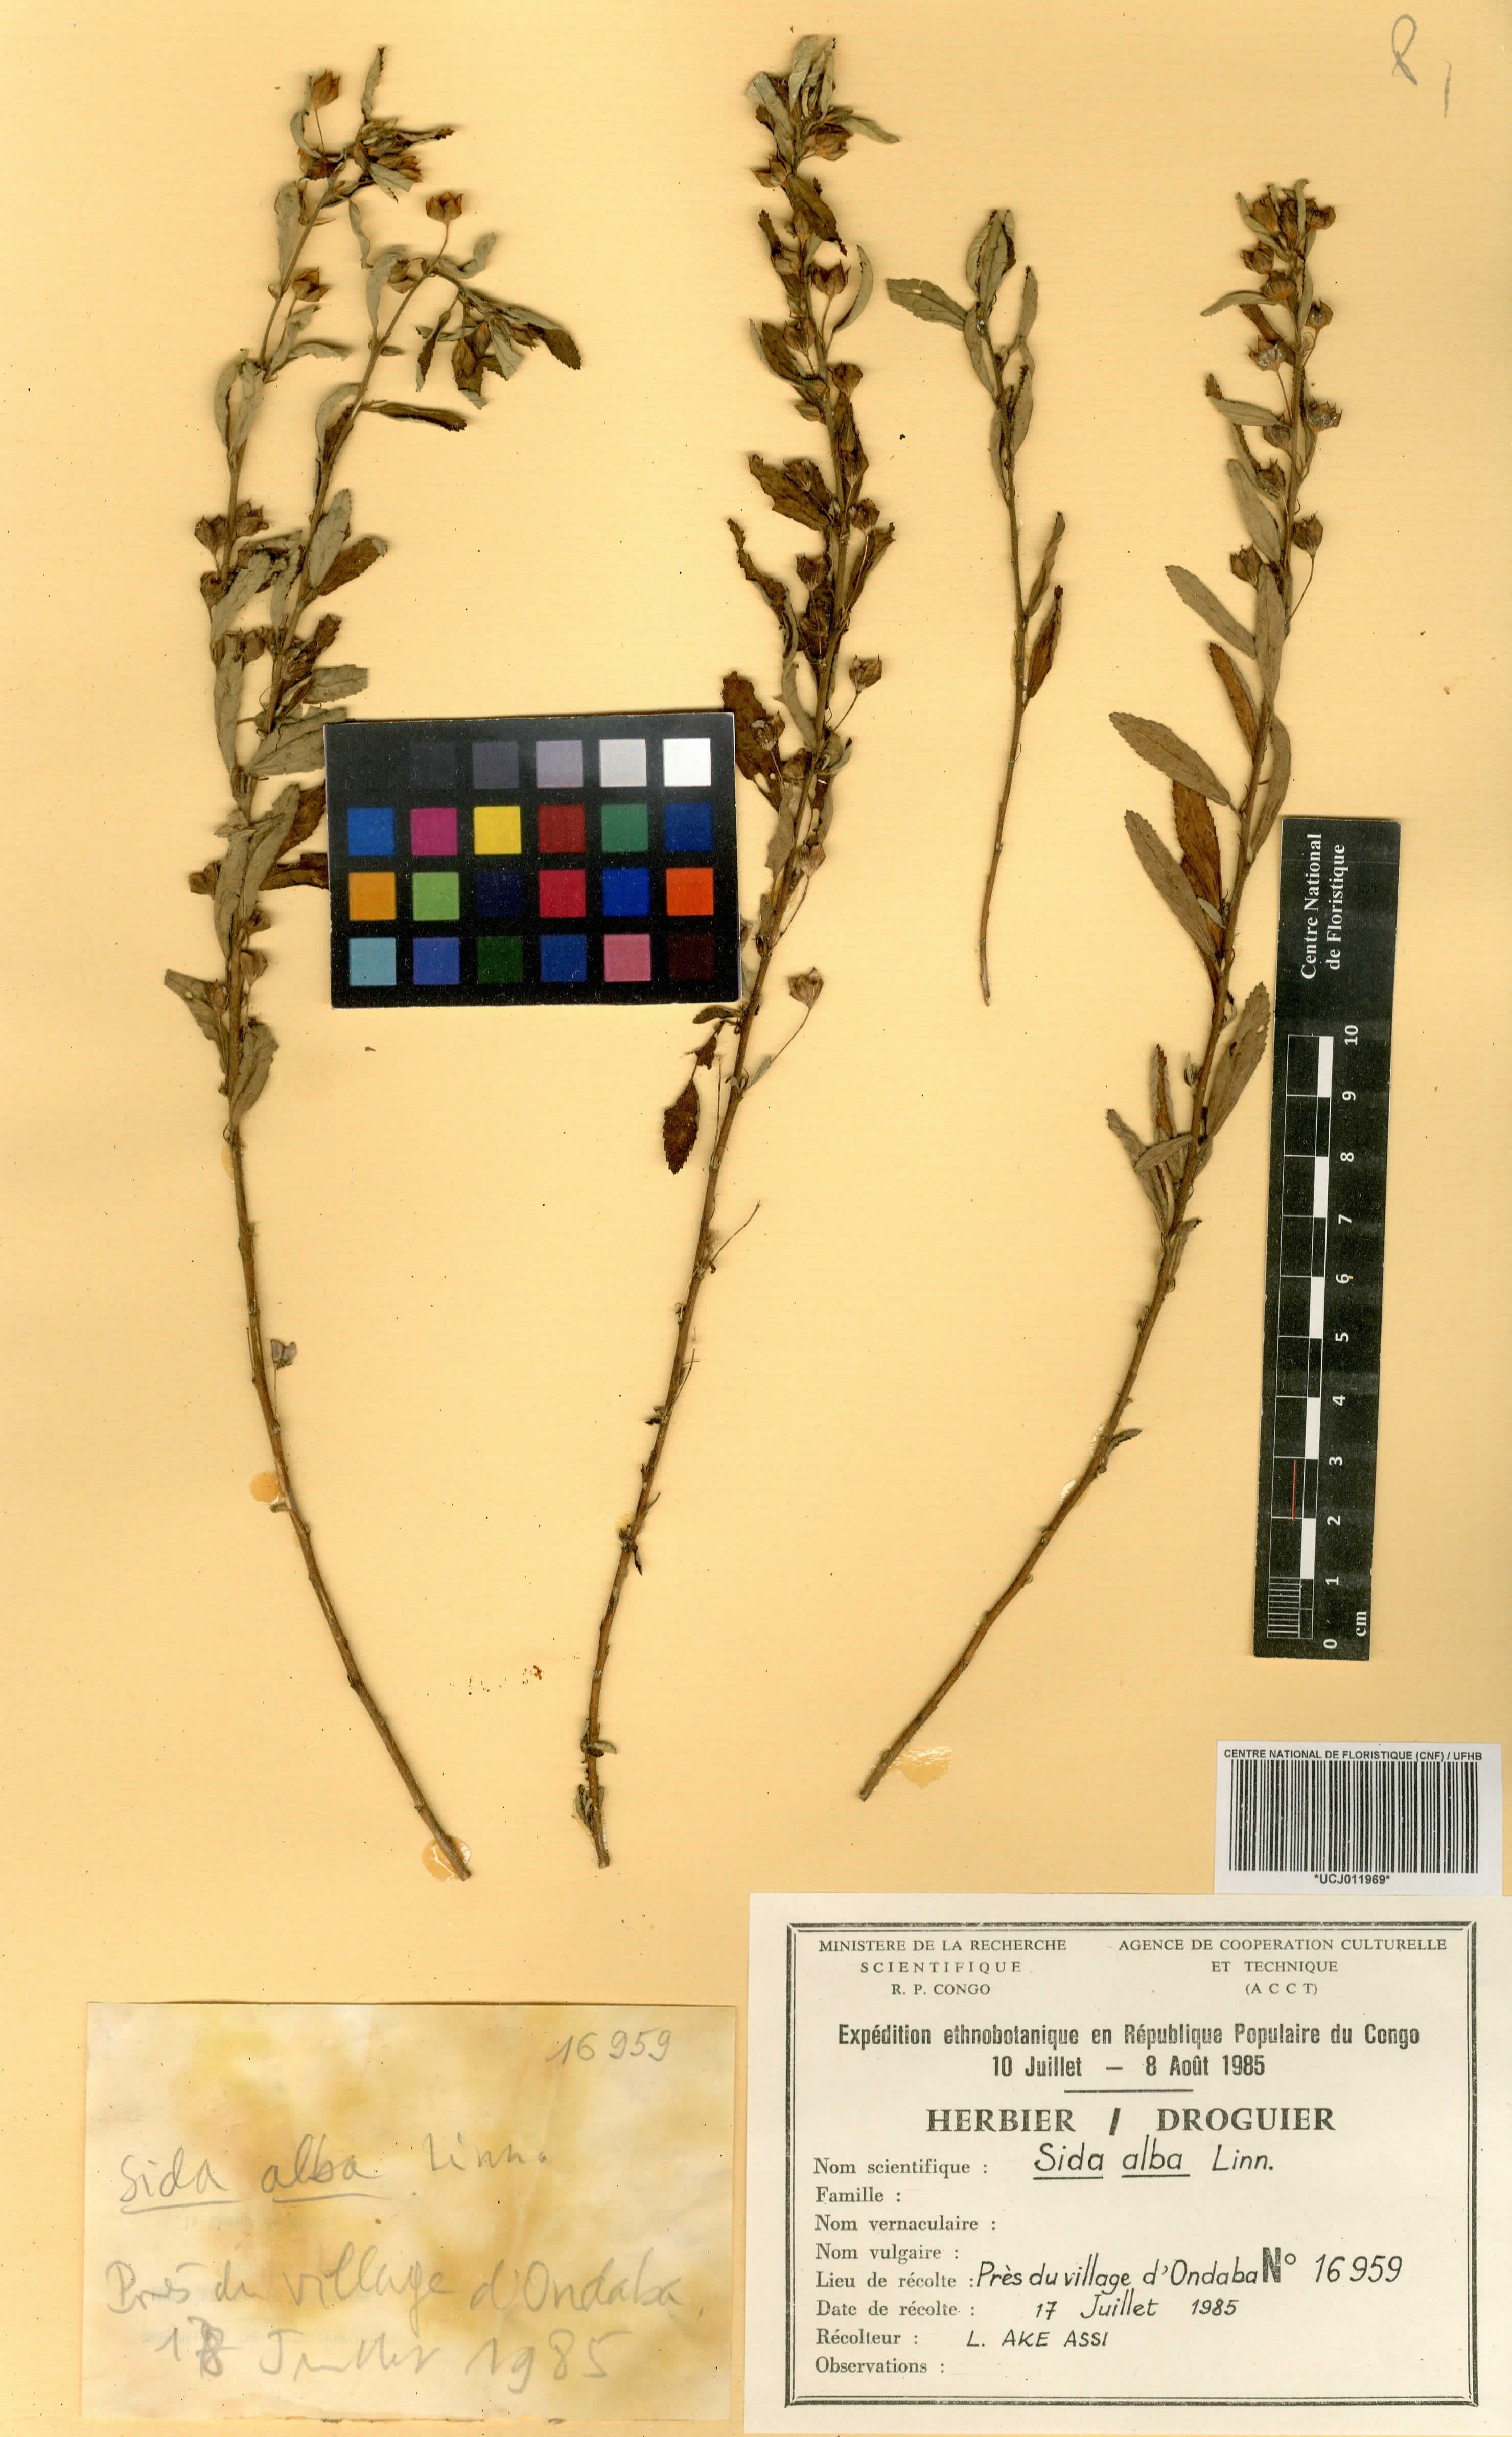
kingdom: Plantae
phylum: Tracheophyta
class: Magnoliopsida
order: Malvales
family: Malvaceae
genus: Sida
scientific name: Sida alba
